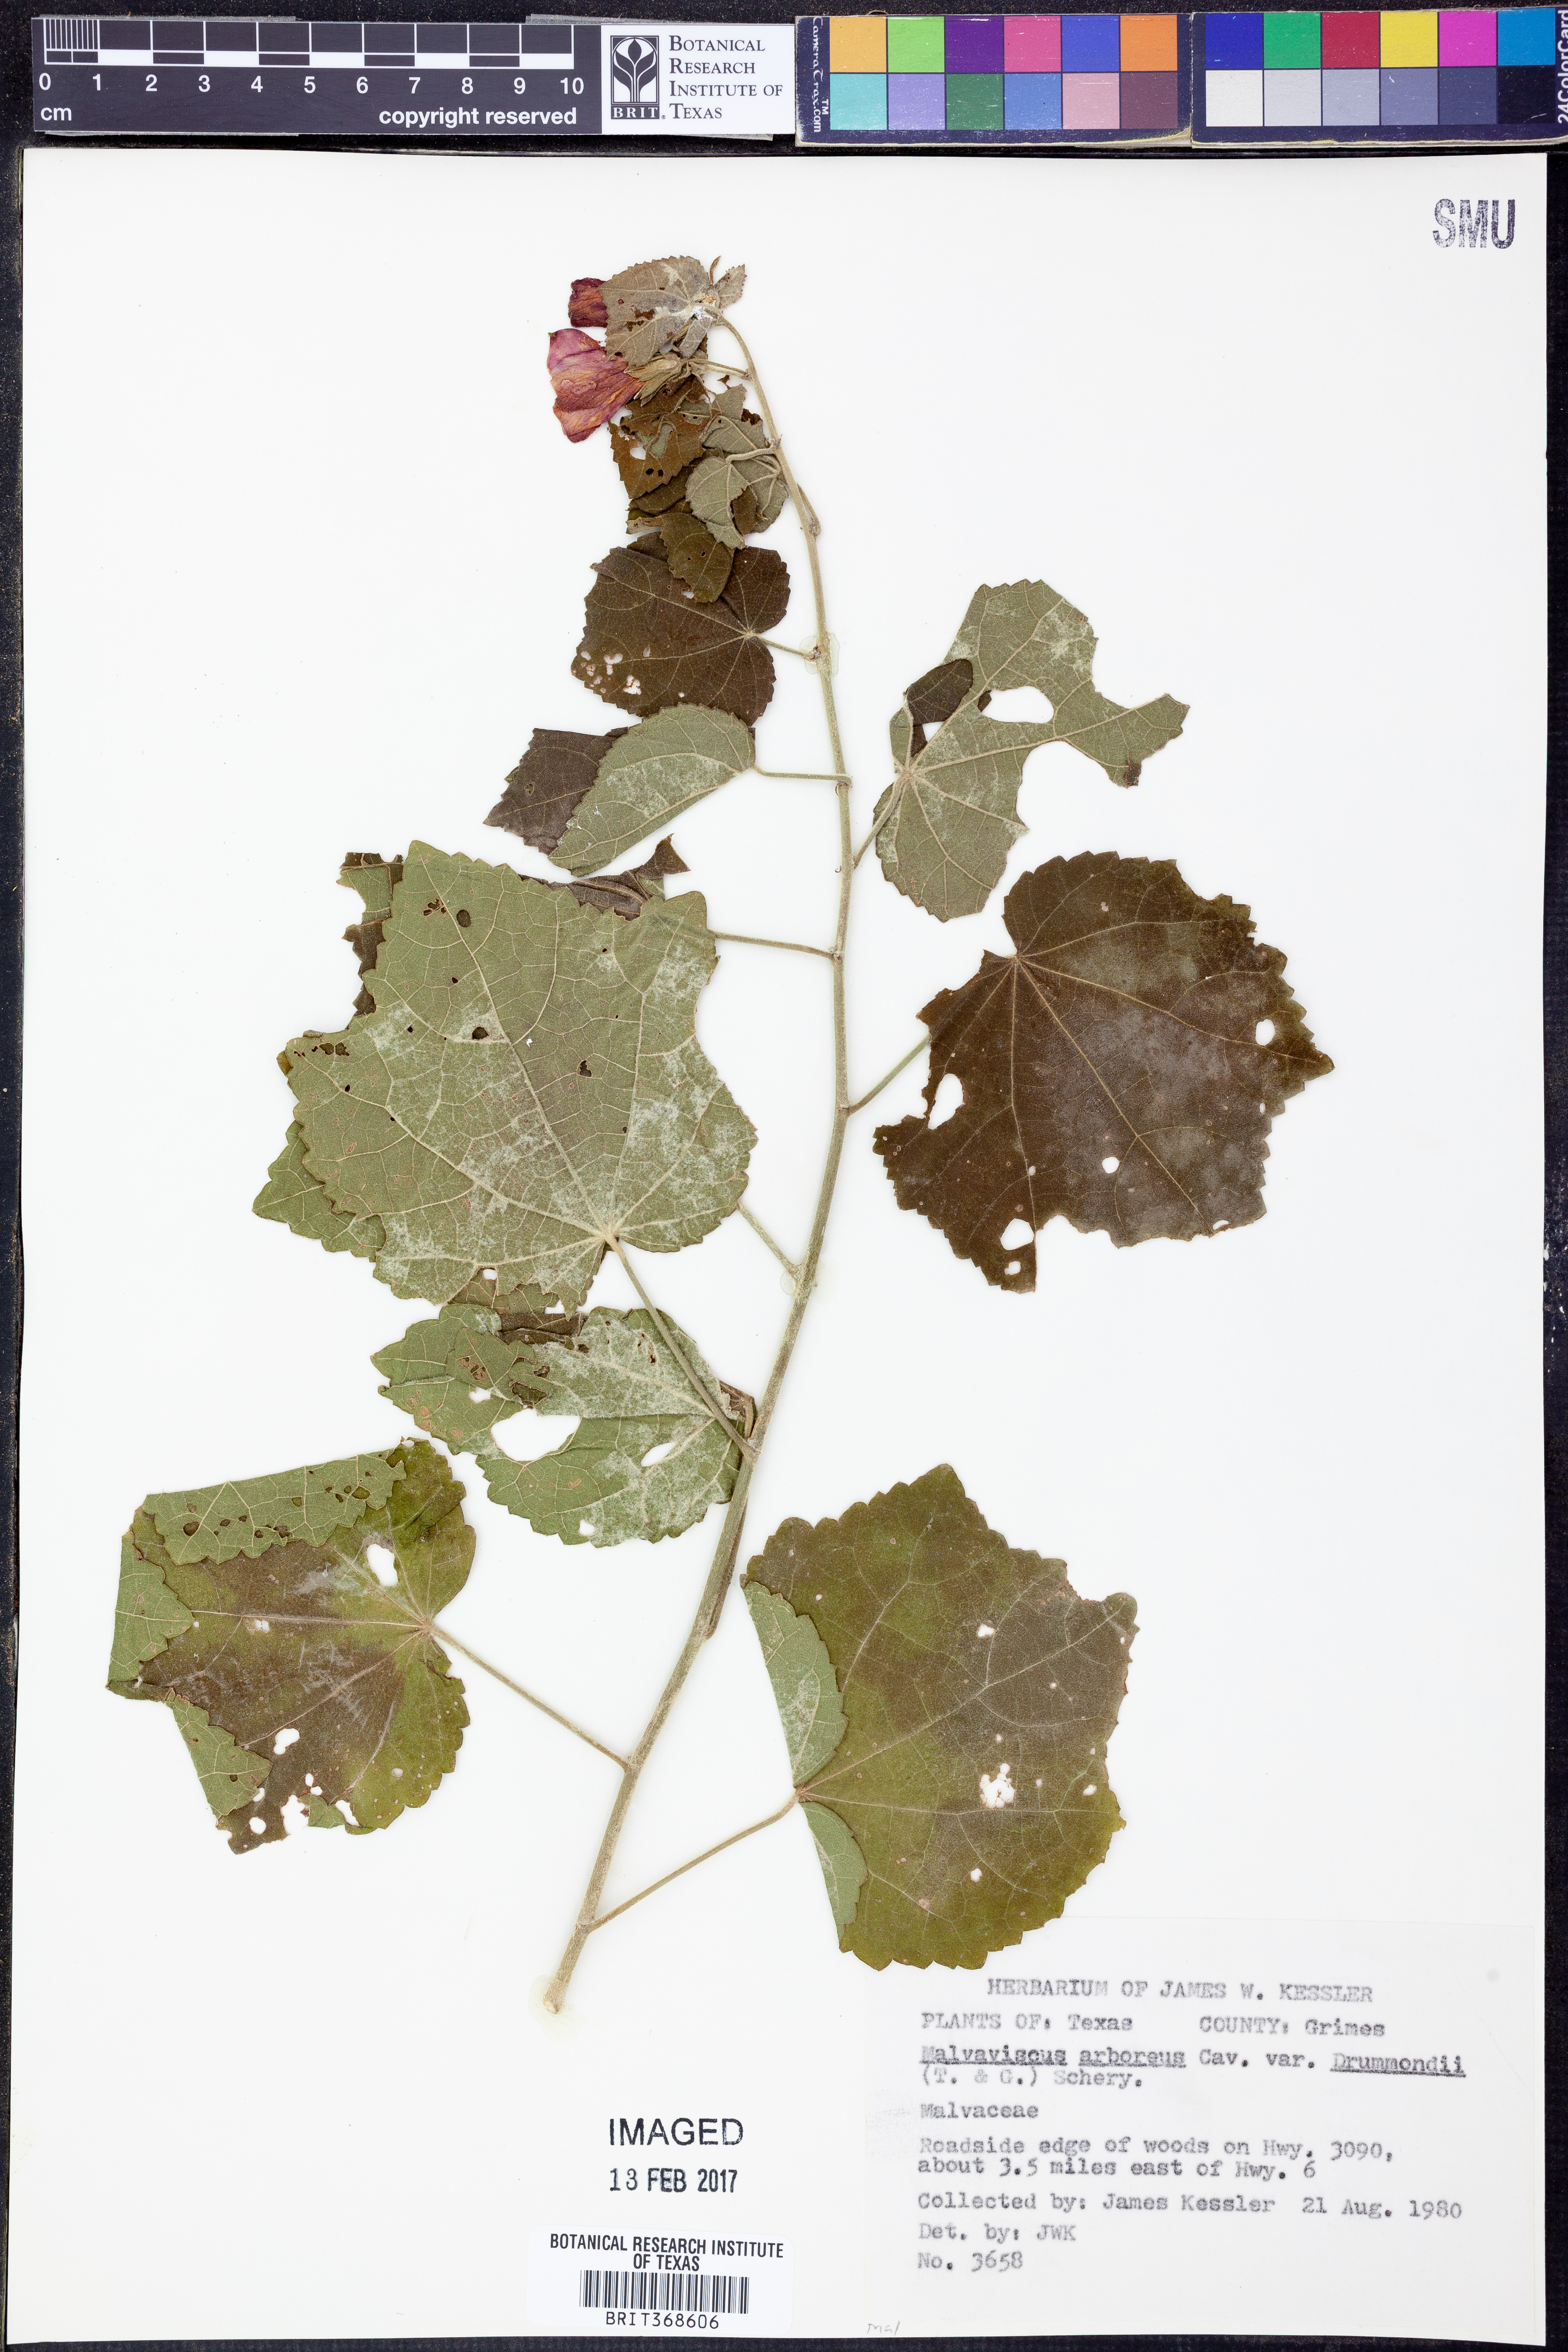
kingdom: Plantae
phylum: Tracheophyta
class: Magnoliopsida
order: Malvales
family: Malvaceae
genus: Malvaviscus
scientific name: Malvaviscus arboreus
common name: Wax mallow
